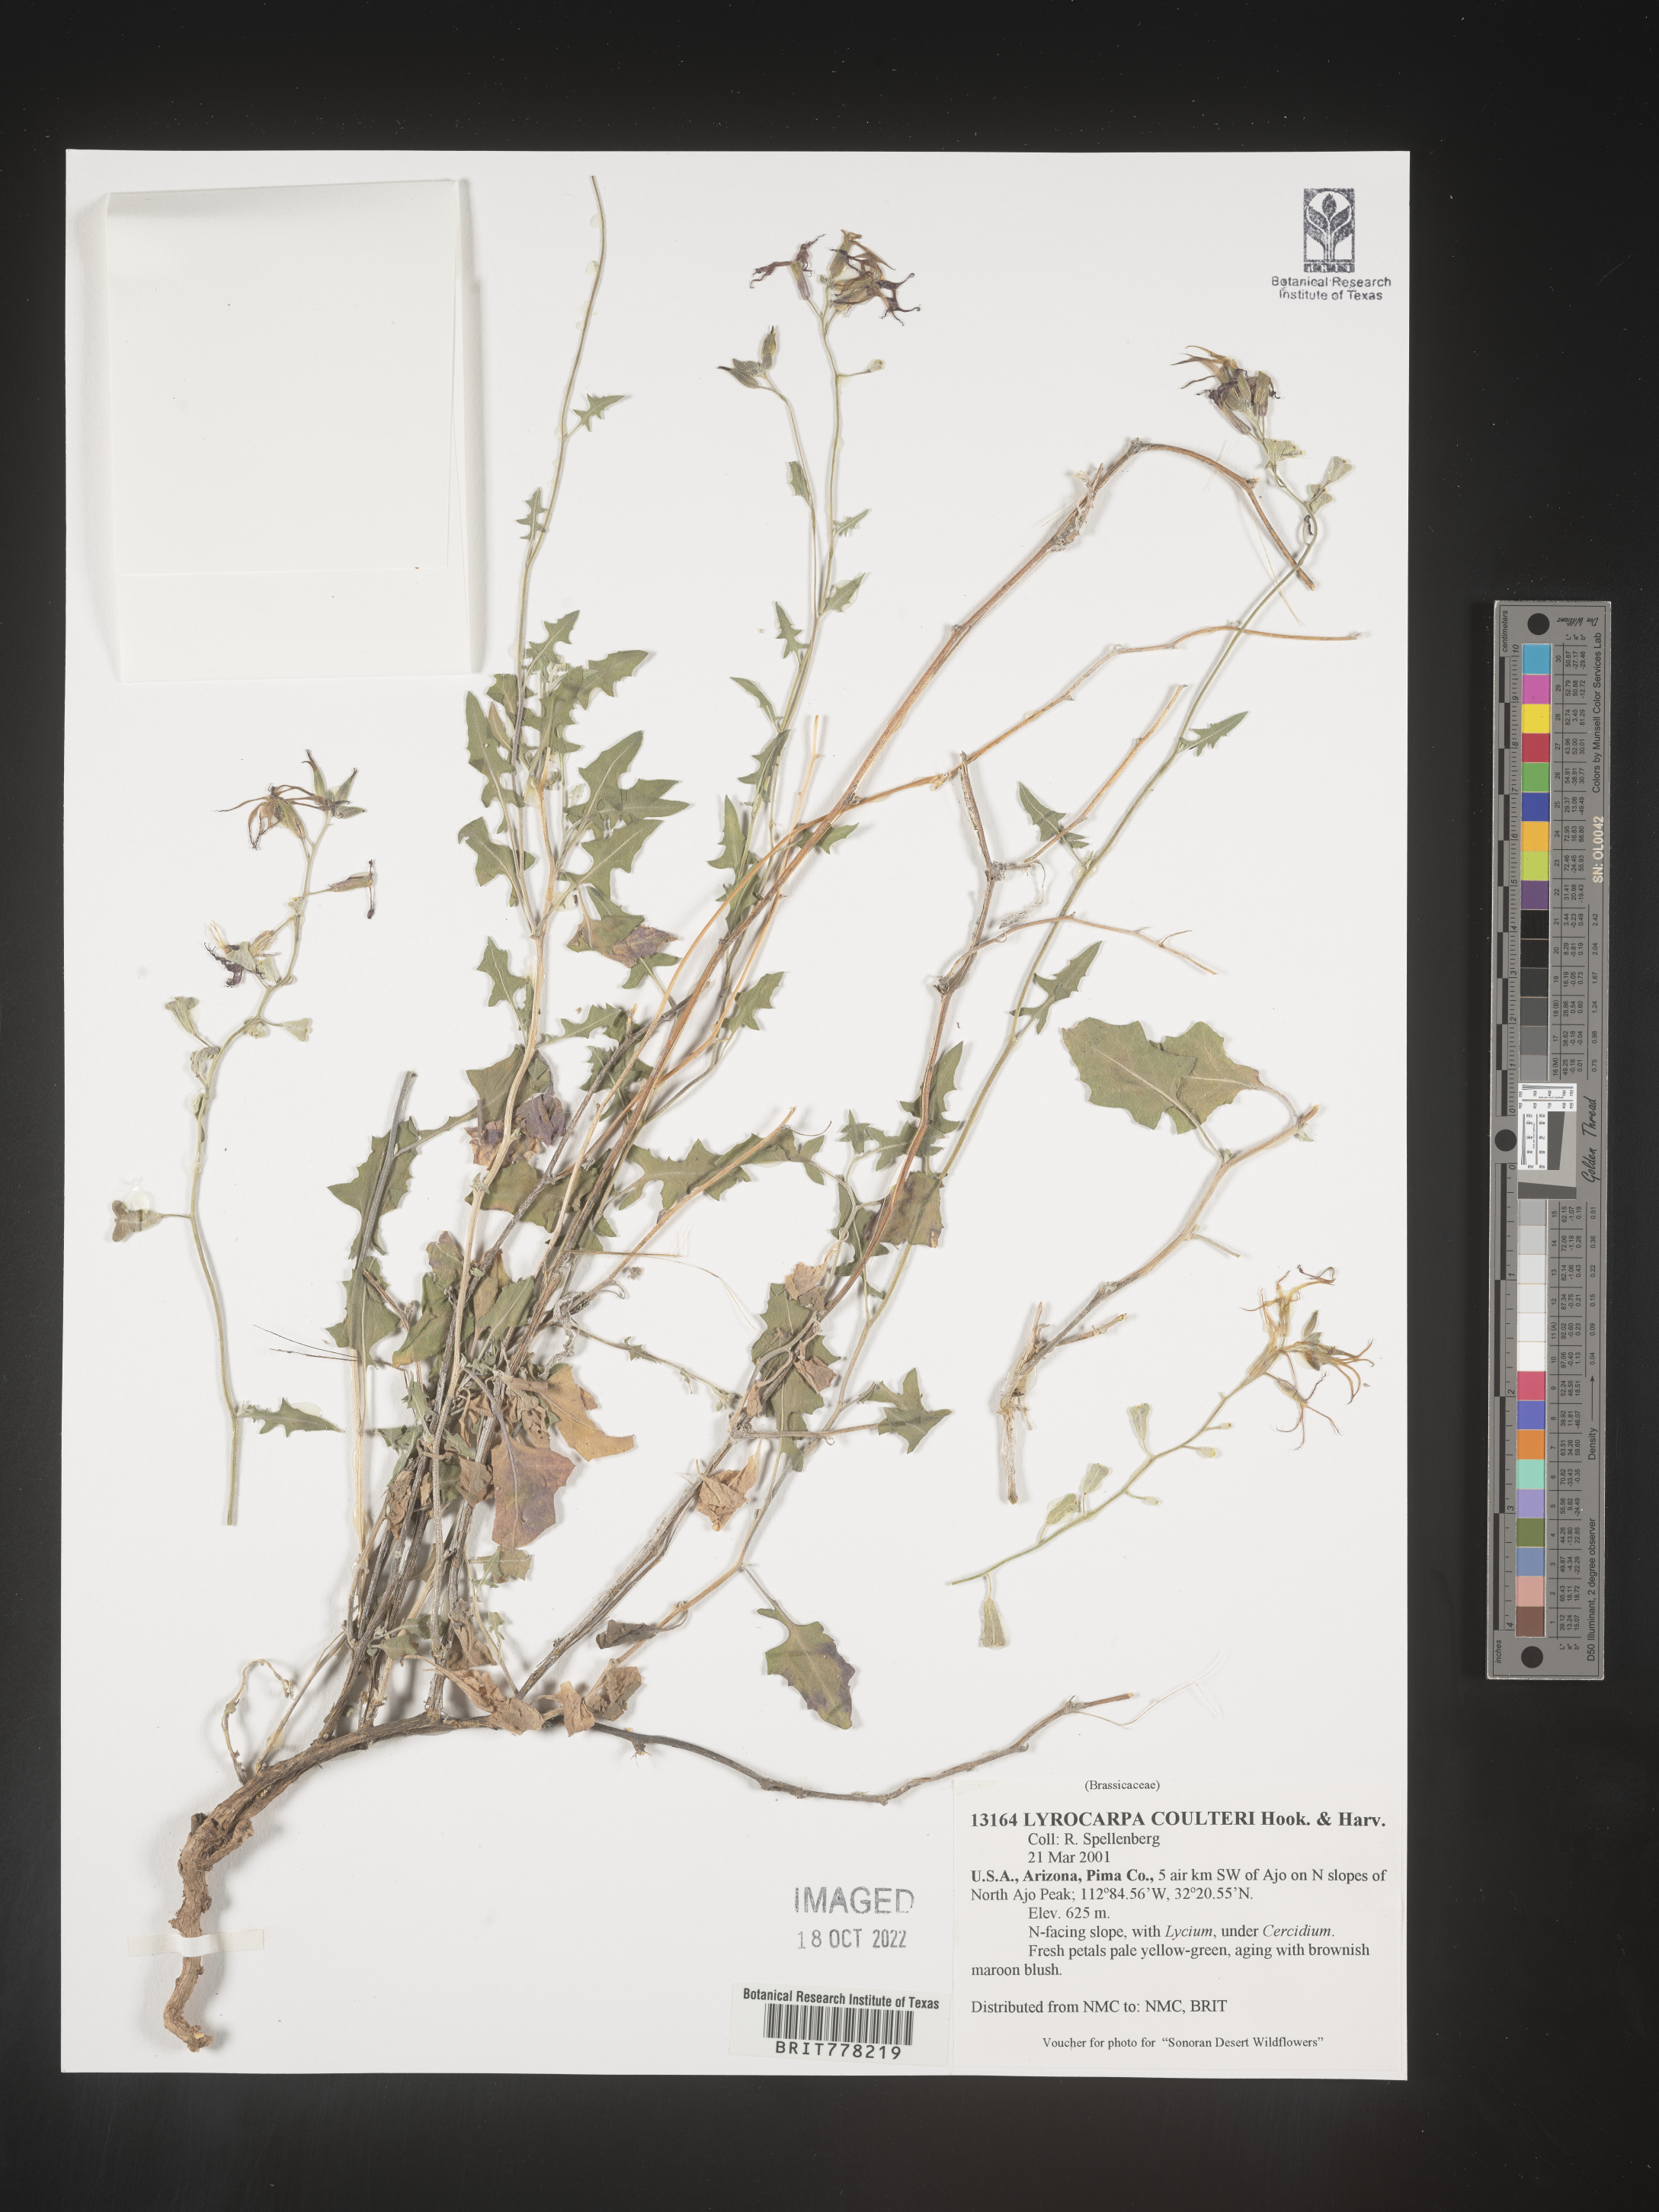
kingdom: Plantae
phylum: Tracheophyta
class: Magnoliopsida
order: Brassicales
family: Brassicaceae
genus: Lyrocarpa
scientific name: Lyrocarpa
